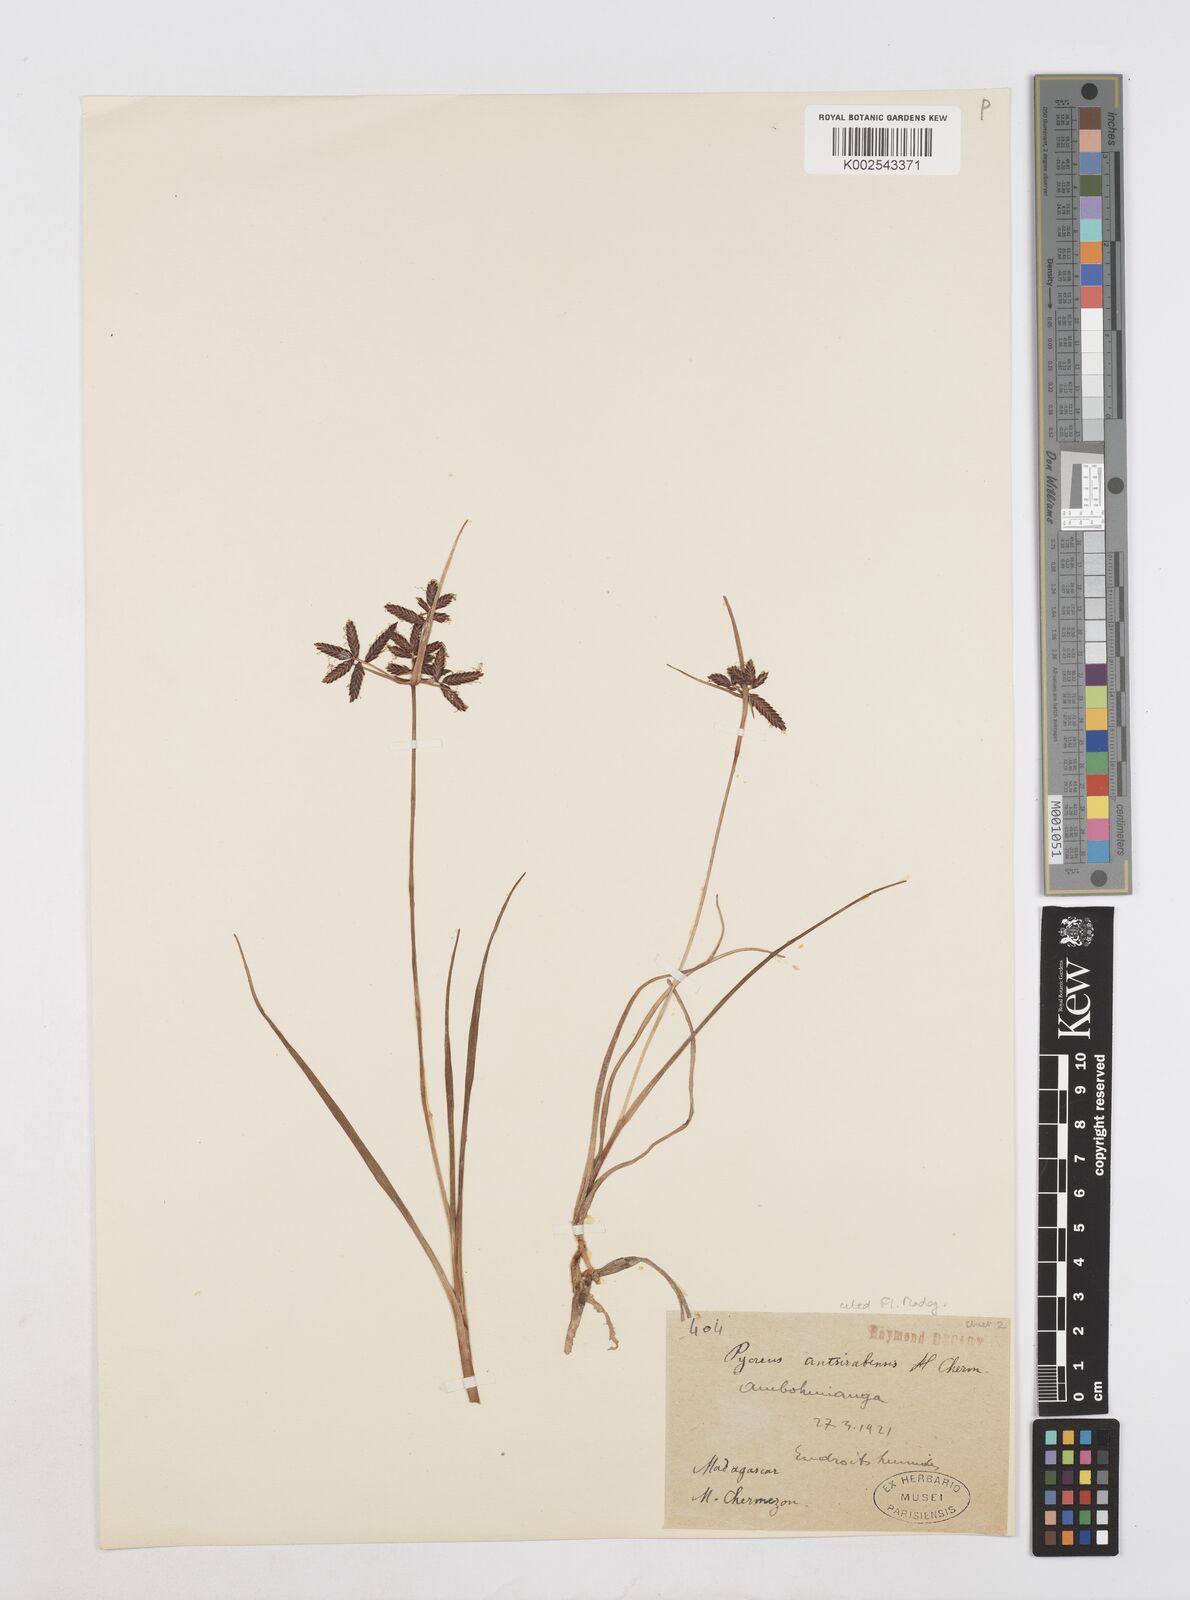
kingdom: Plantae
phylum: Tracheophyta
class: Liliopsida
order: Poales
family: Cyperaceae
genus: Cyperus
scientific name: Cyperus nitidus
